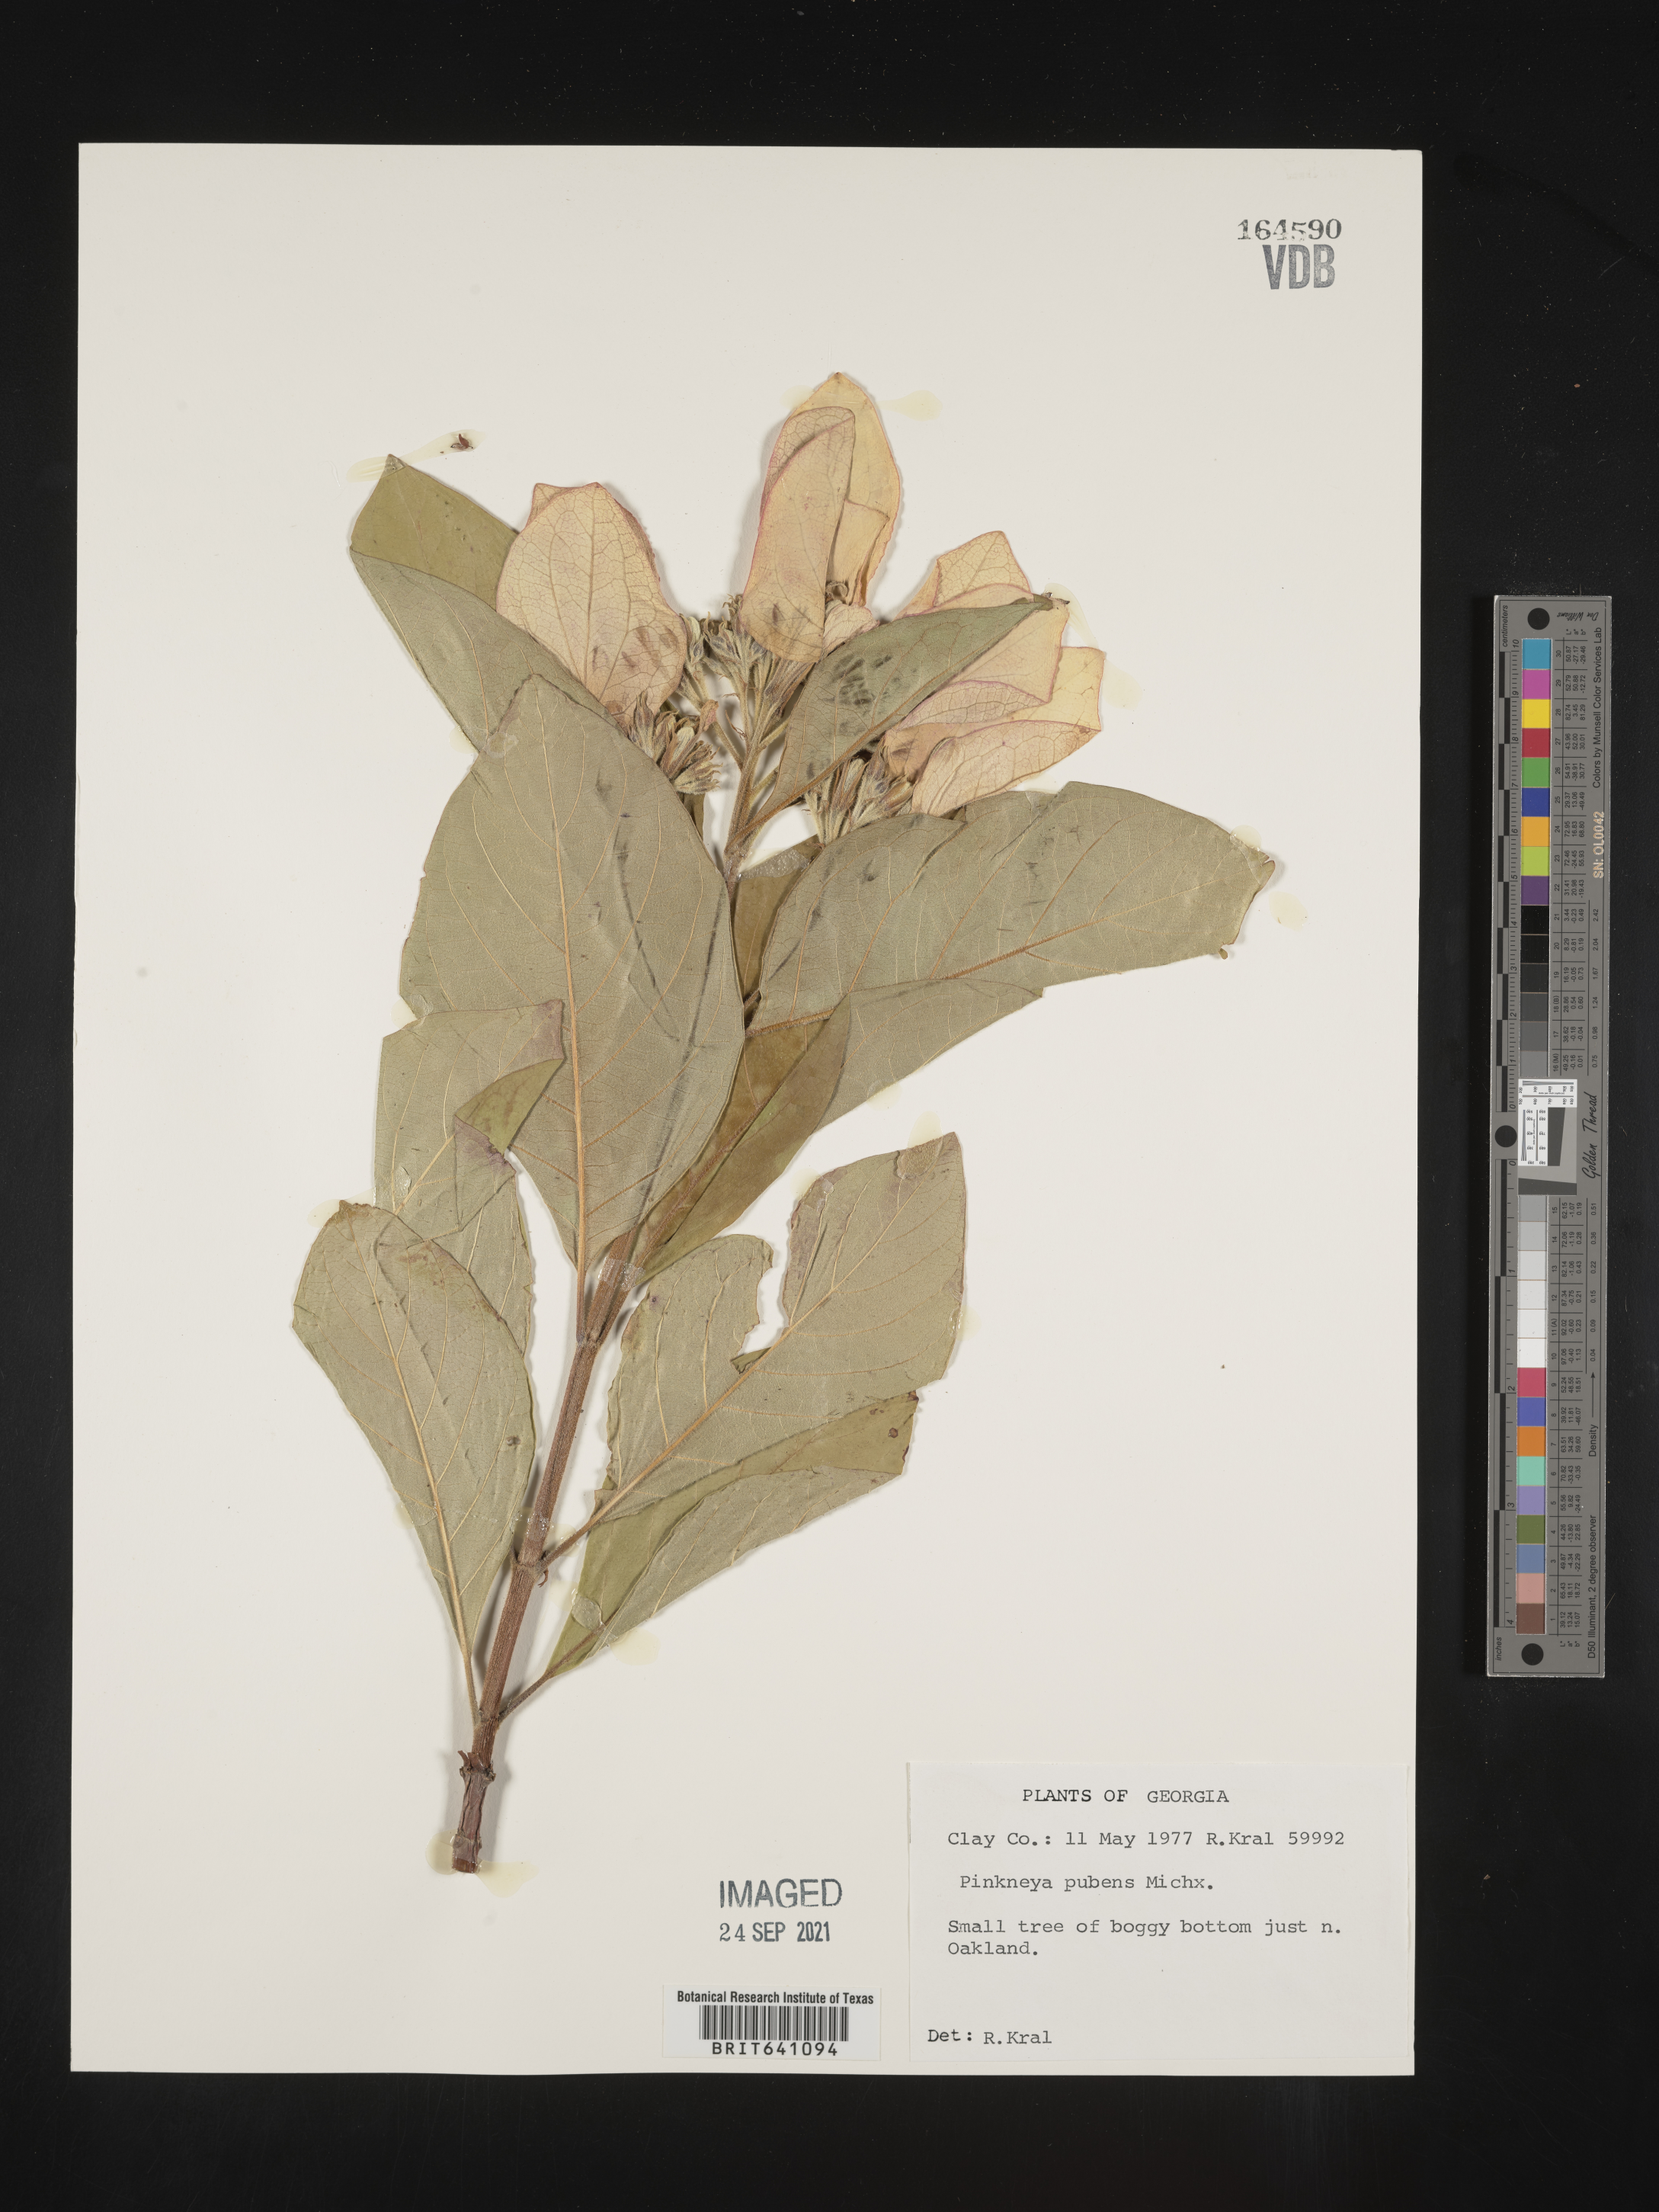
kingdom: Plantae
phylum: Tracheophyta
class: Magnoliopsida
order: Gentianales
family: Rubiaceae
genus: Pinckneya
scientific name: Pinckneya pubens
